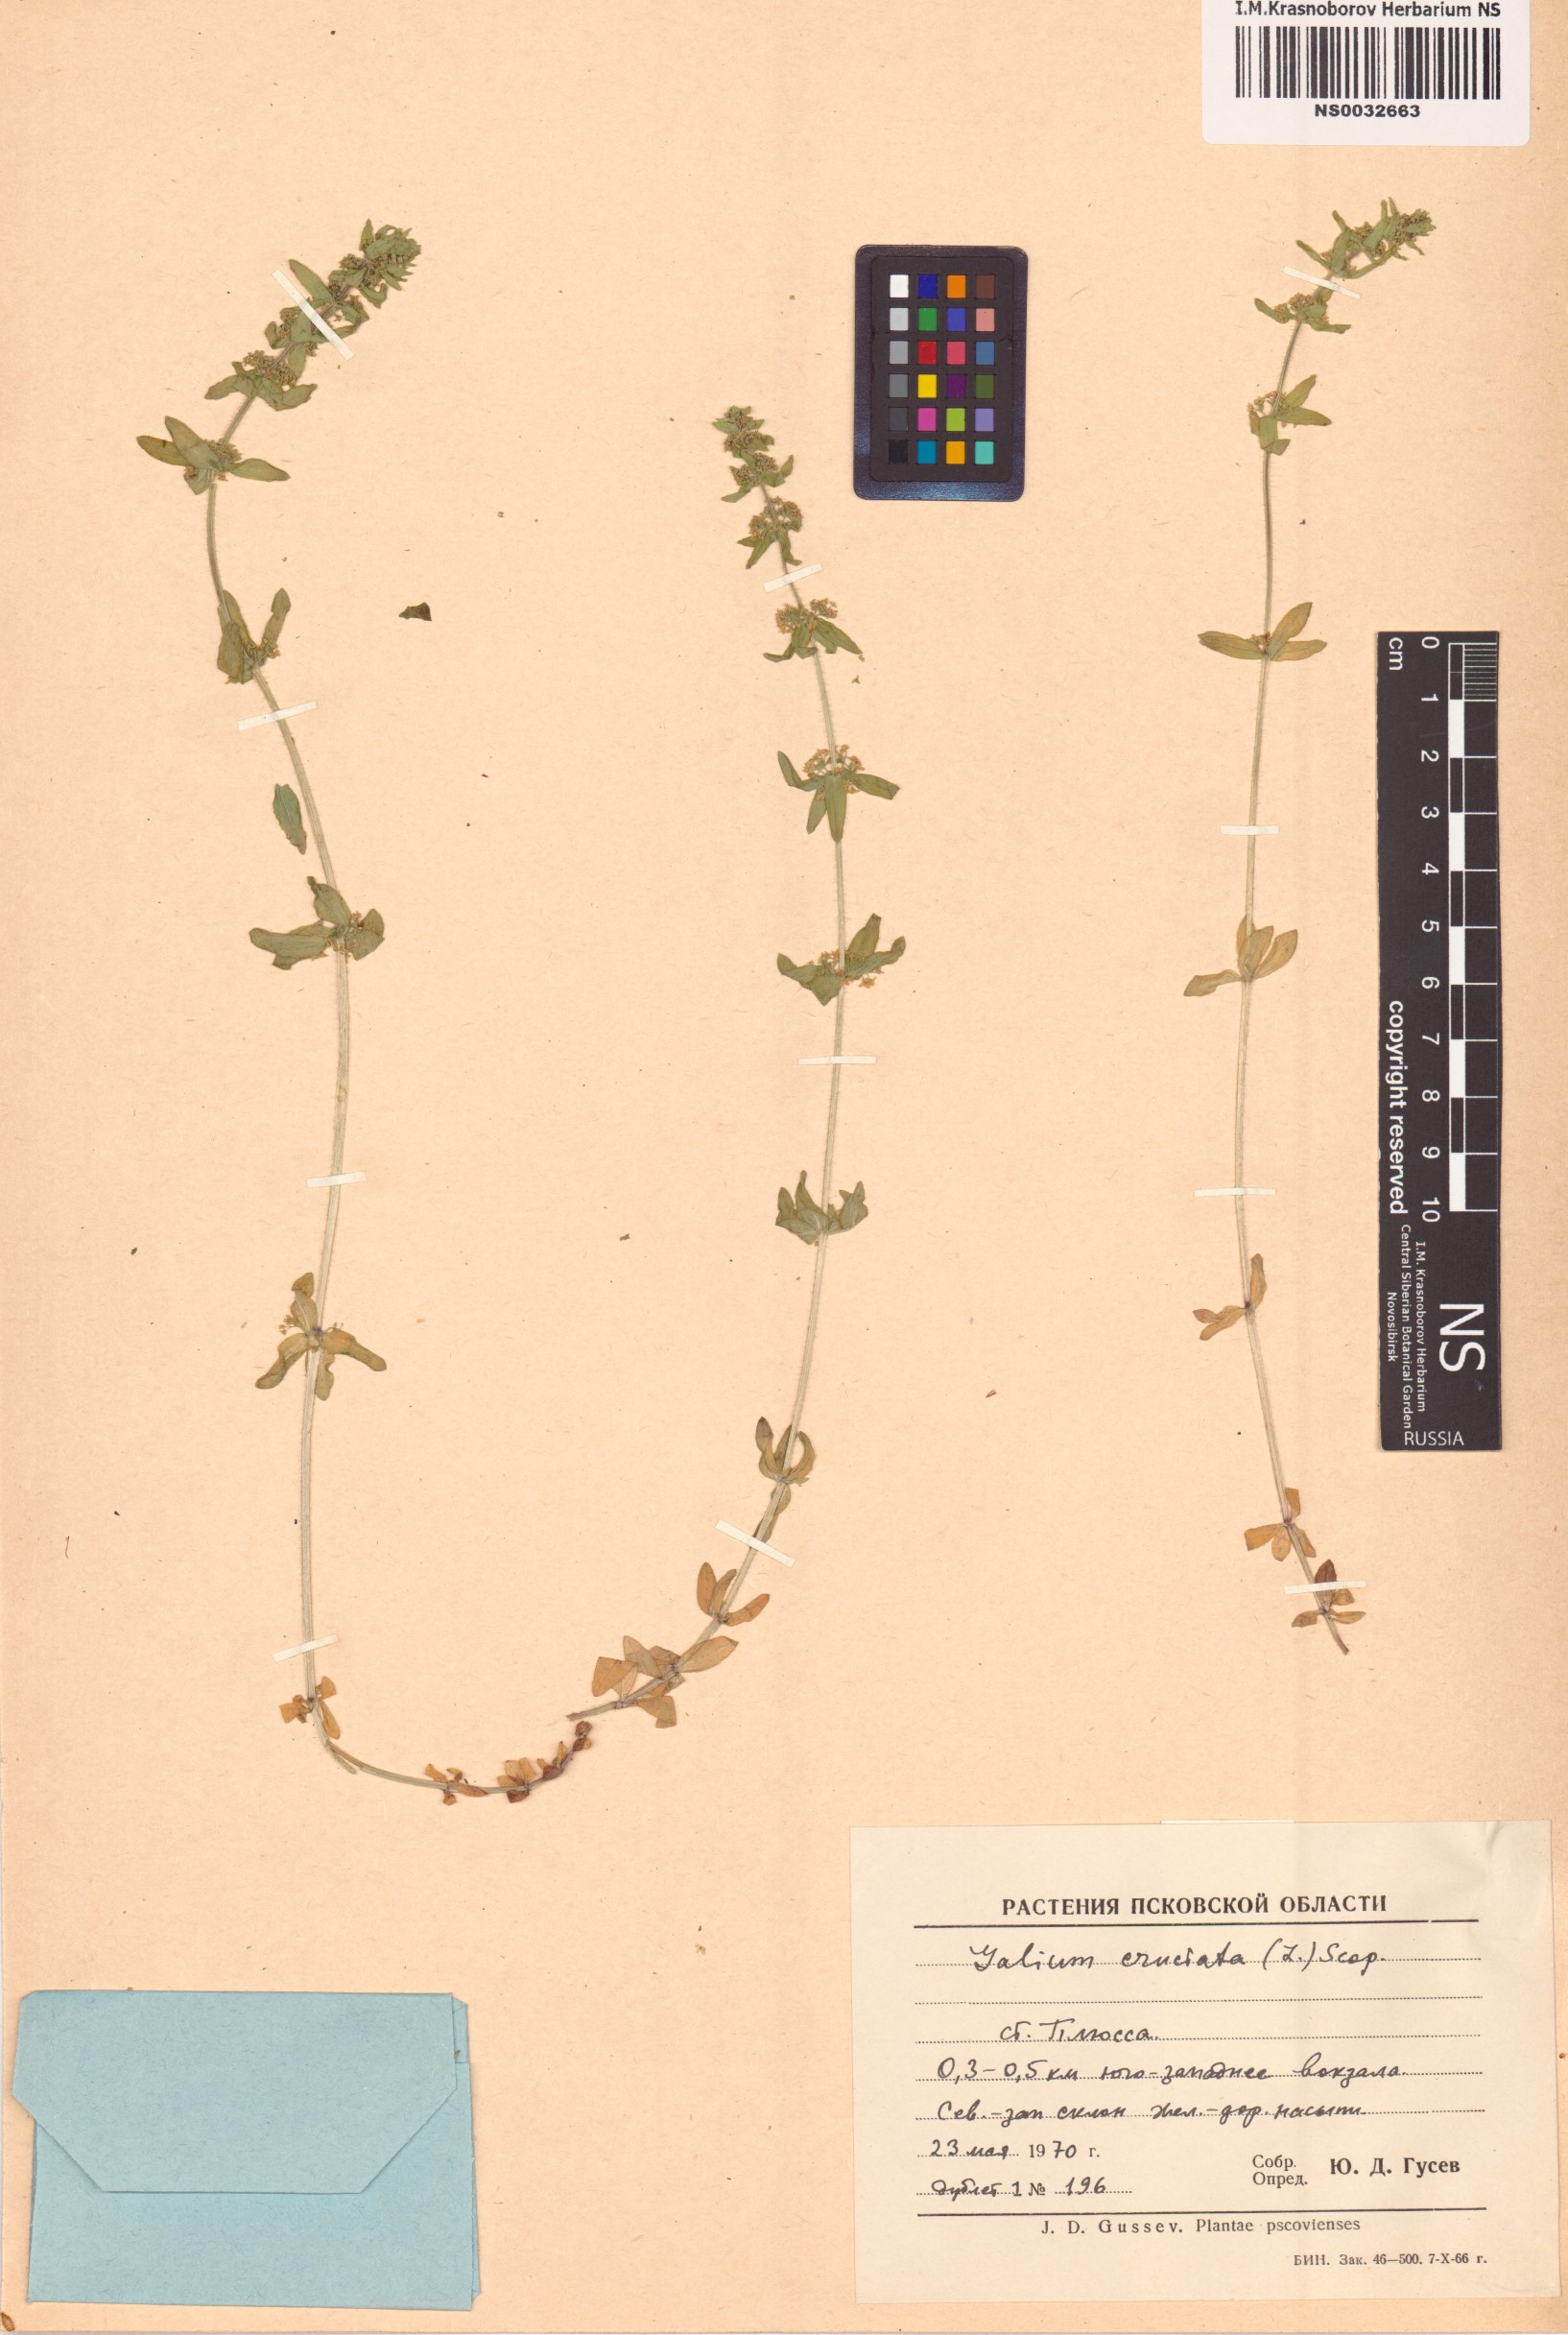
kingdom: Plantae
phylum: Tracheophyta
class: Magnoliopsida
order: Gentianales
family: Rubiaceae
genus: Cruciata
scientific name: Cruciata laevipes
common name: Crosswort
